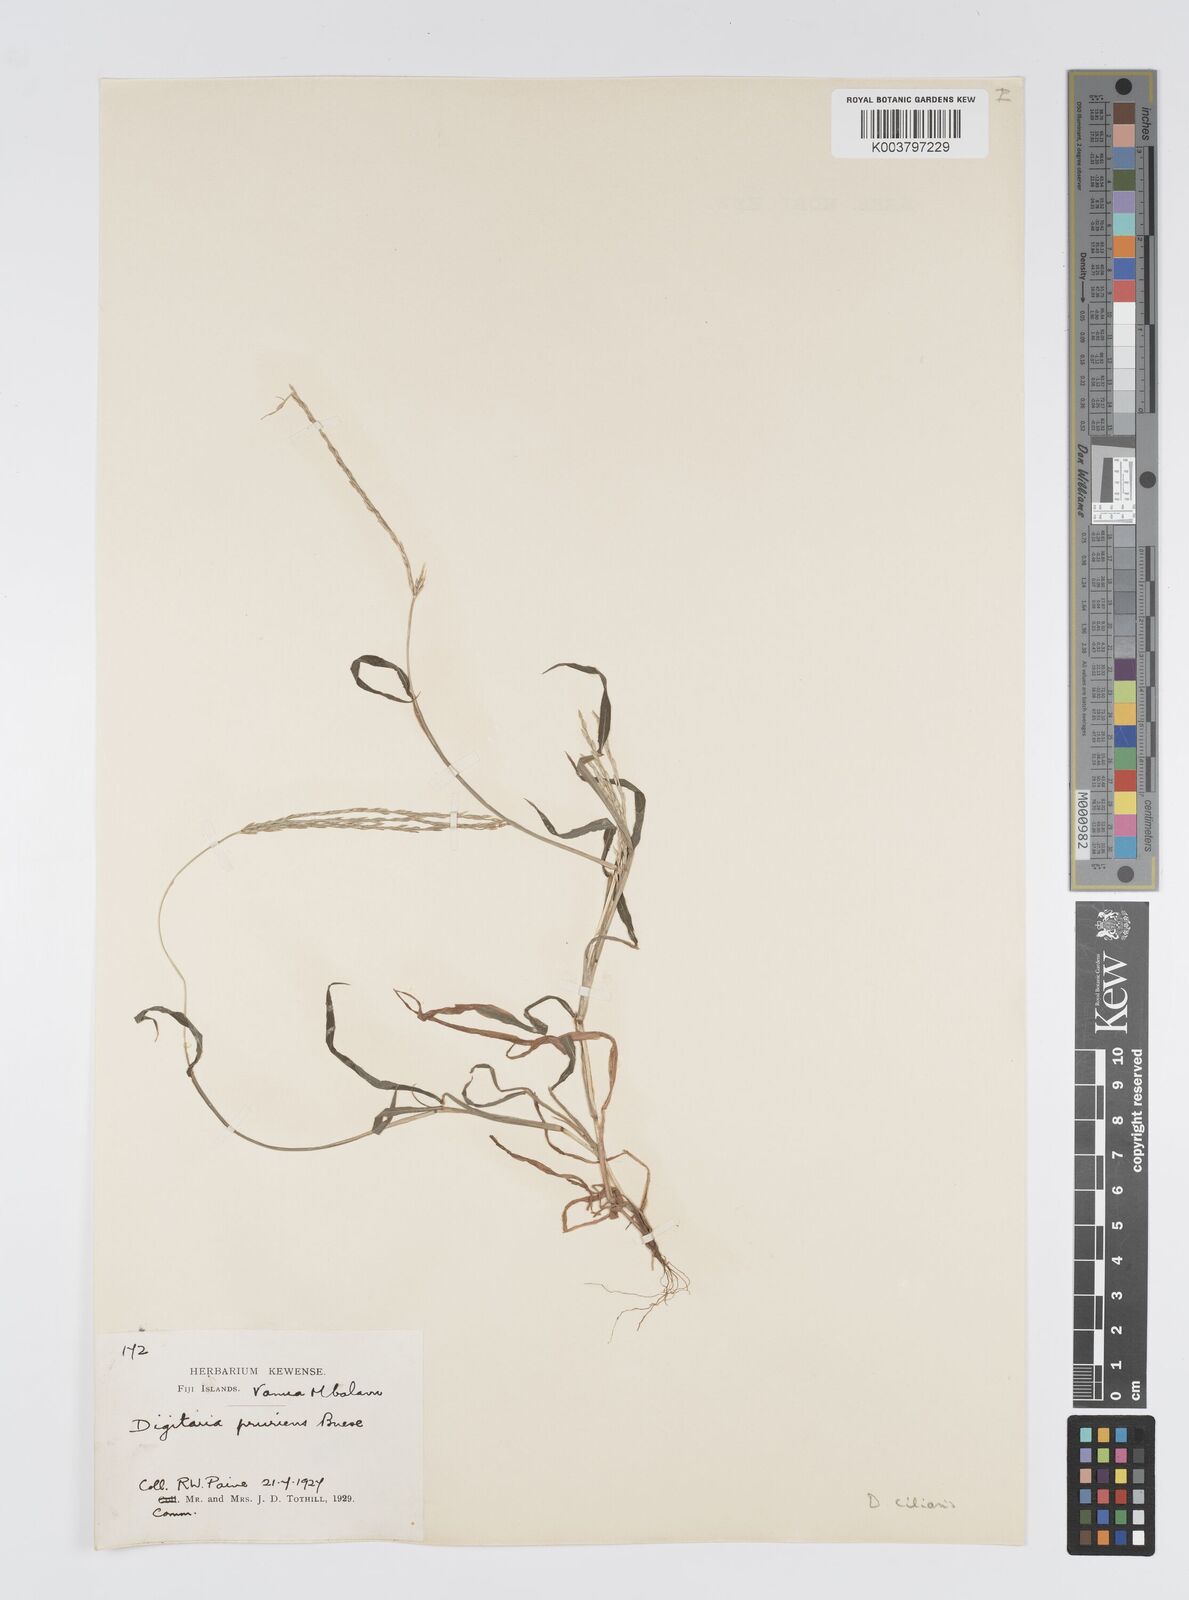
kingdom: Plantae
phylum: Tracheophyta
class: Liliopsida
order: Poales
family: Poaceae
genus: Digitaria
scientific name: Digitaria ciliaris
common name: Tropical finger-grass
